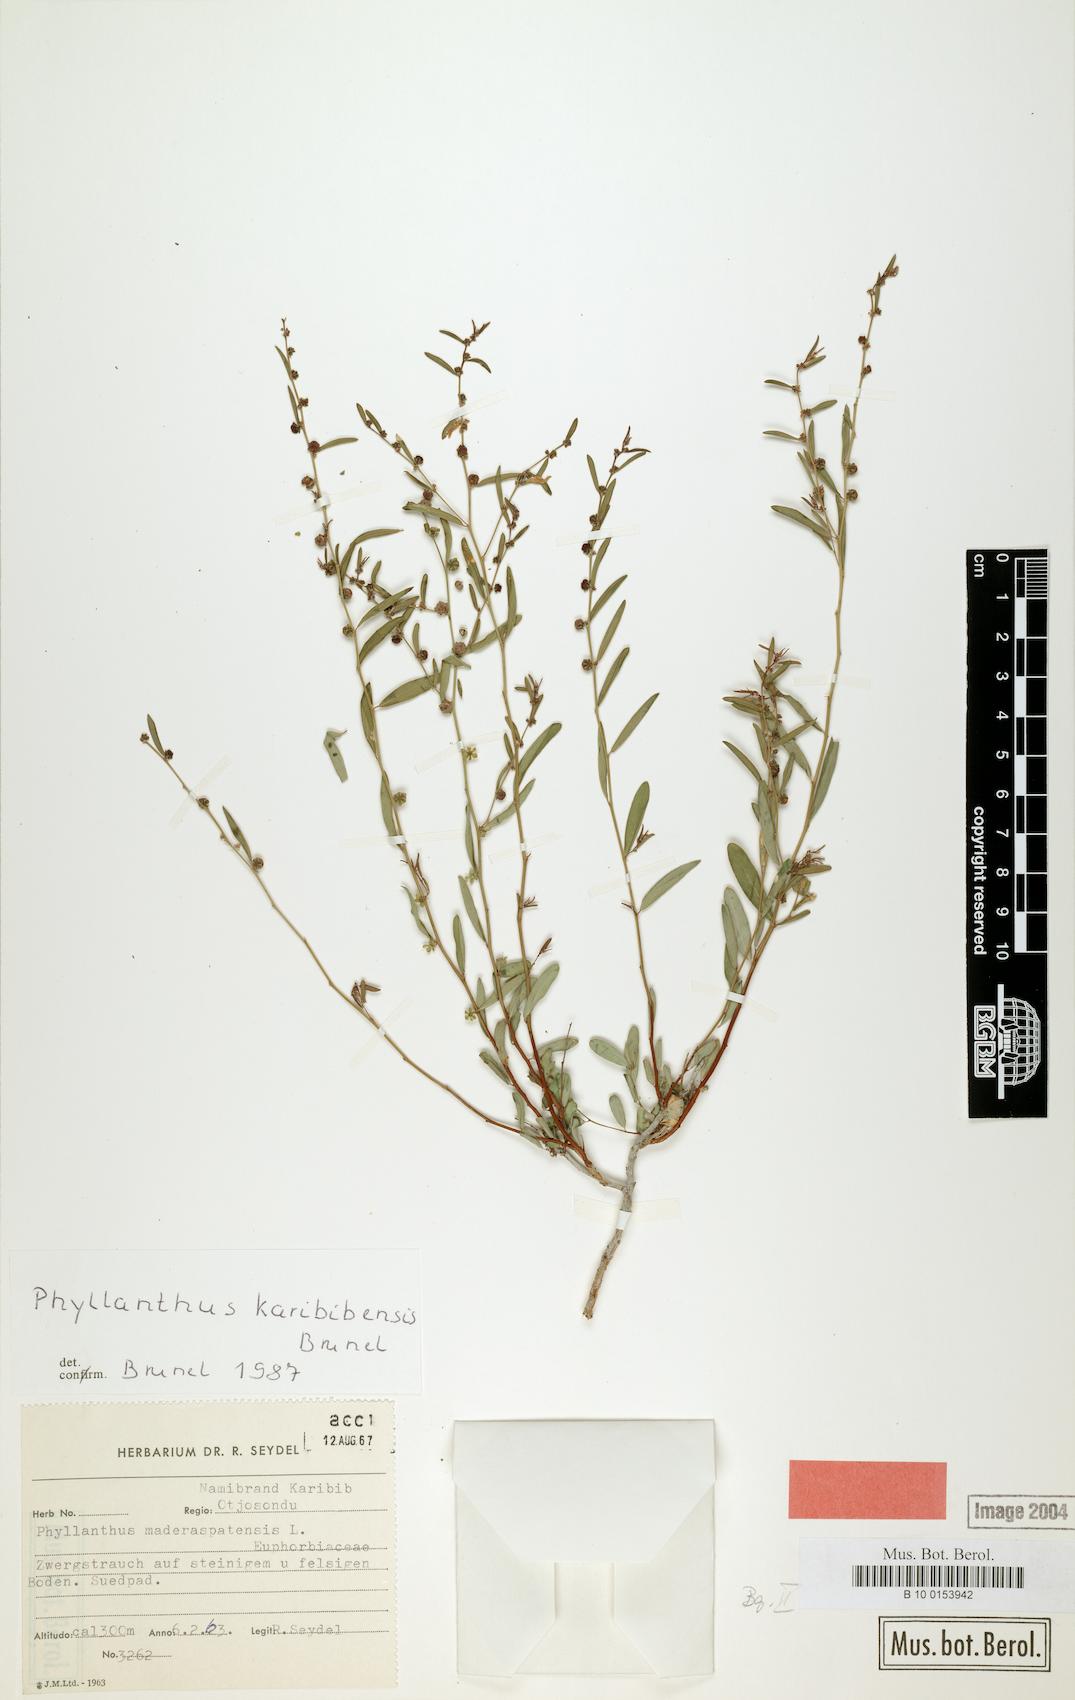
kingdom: Plantae
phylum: Tracheophyta
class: Magnoliopsida
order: Malpighiales
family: Phyllanthaceae
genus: Phyllanthus
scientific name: Phyllanthus karibibensis
